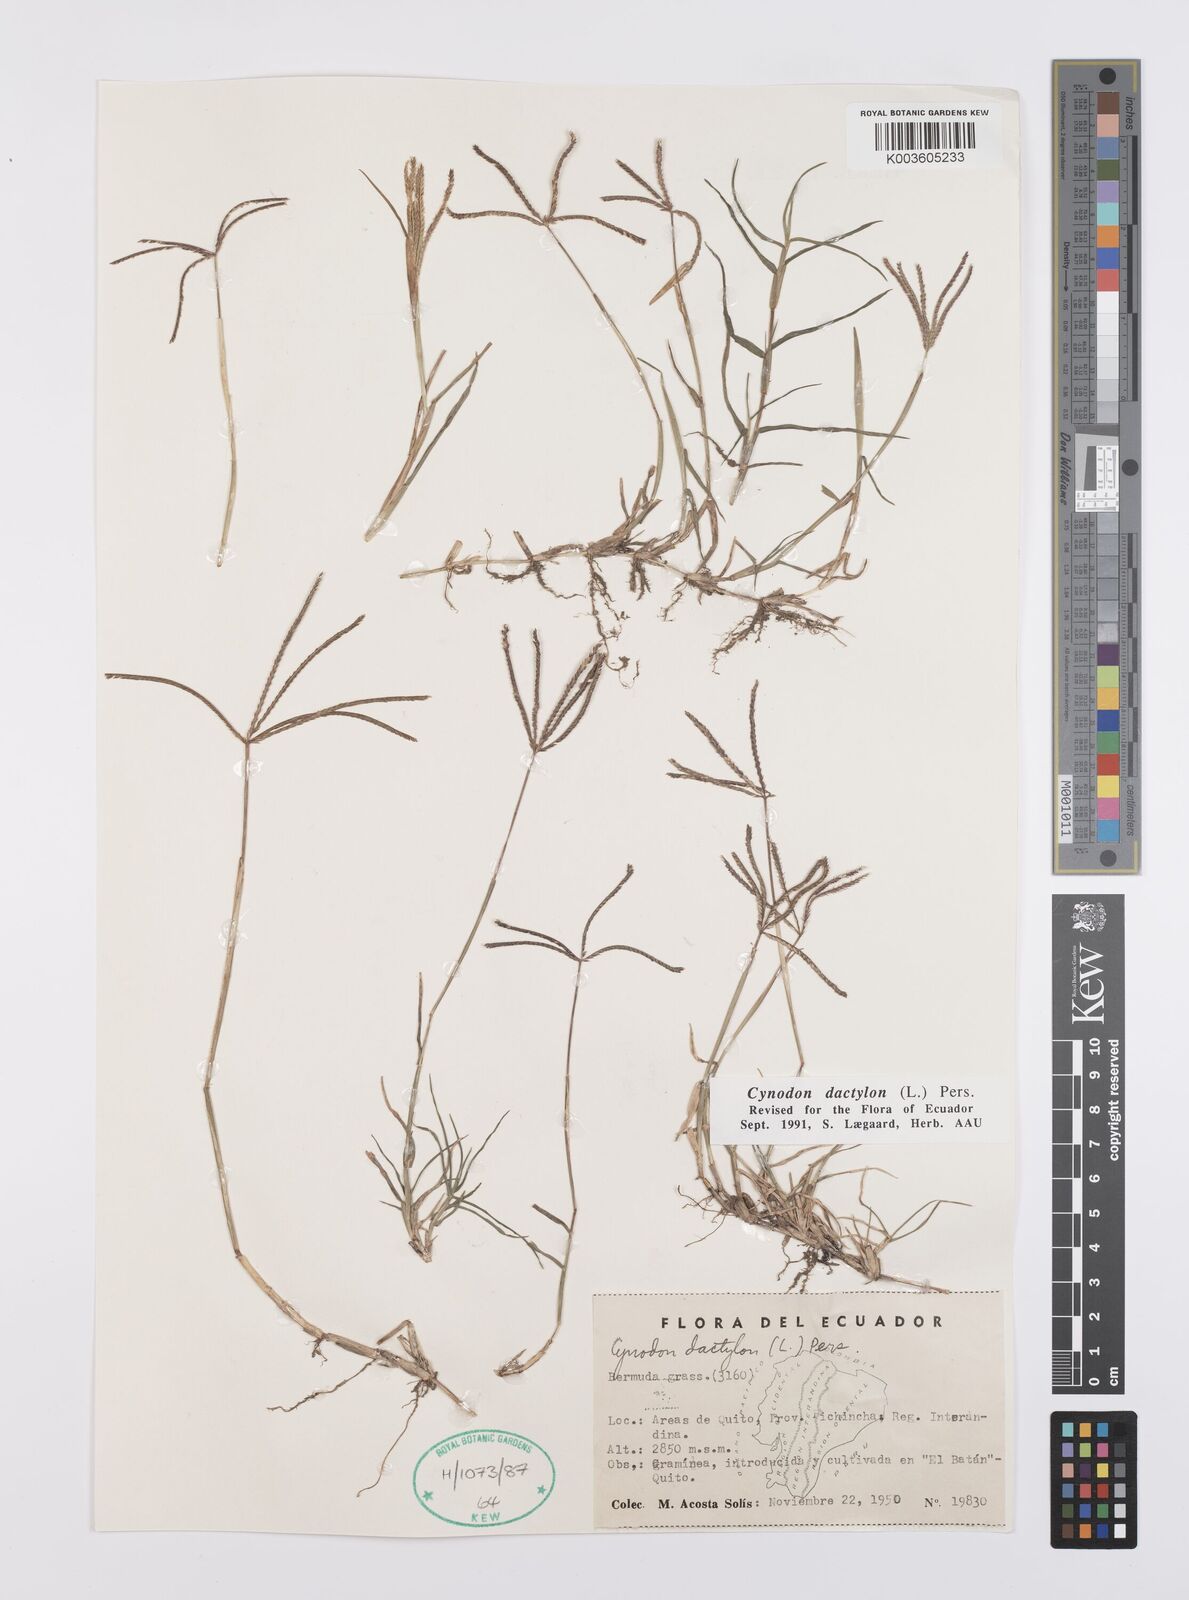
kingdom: Plantae
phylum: Tracheophyta
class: Liliopsida
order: Poales
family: Poaceae
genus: Cynodon
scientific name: Cynodon dactylon
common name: Bermuda grass
